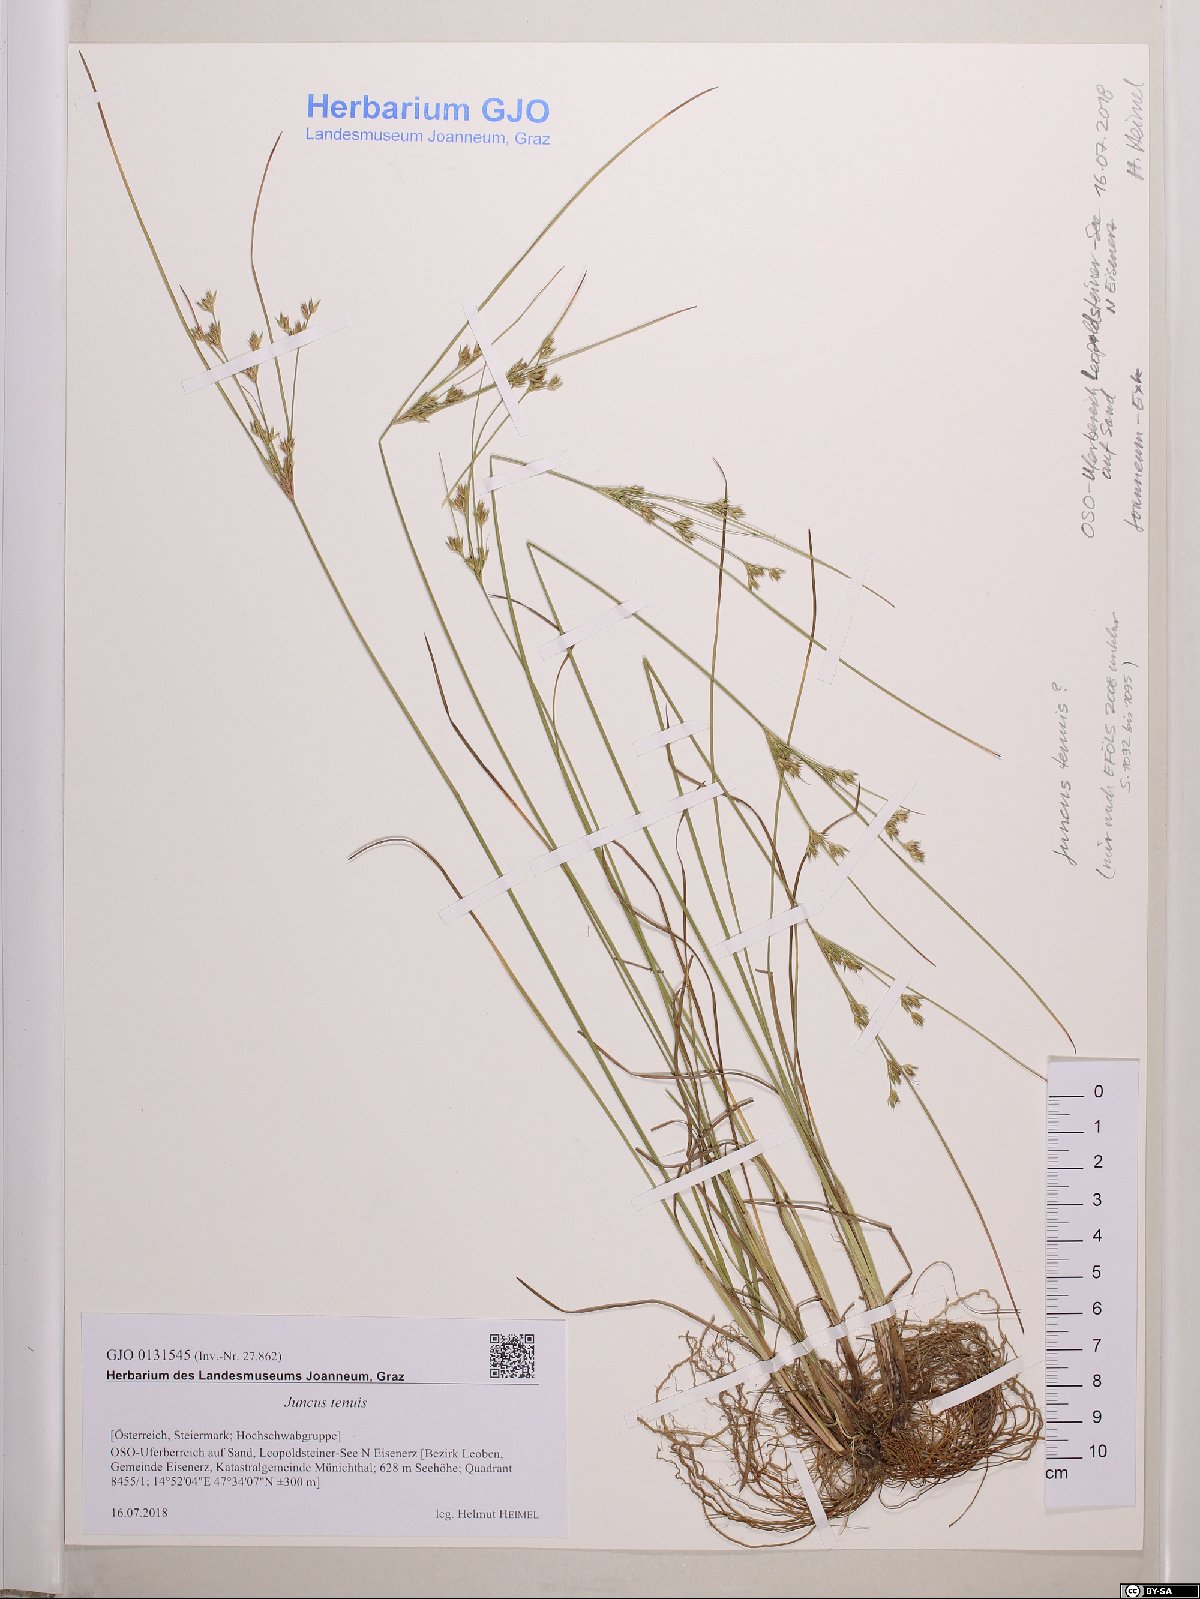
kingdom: Plantae
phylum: Tracheophyta
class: Liliopsida
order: Poales
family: Juncaceae
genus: Juncus
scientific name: Juncus tenuis
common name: Slender rush
